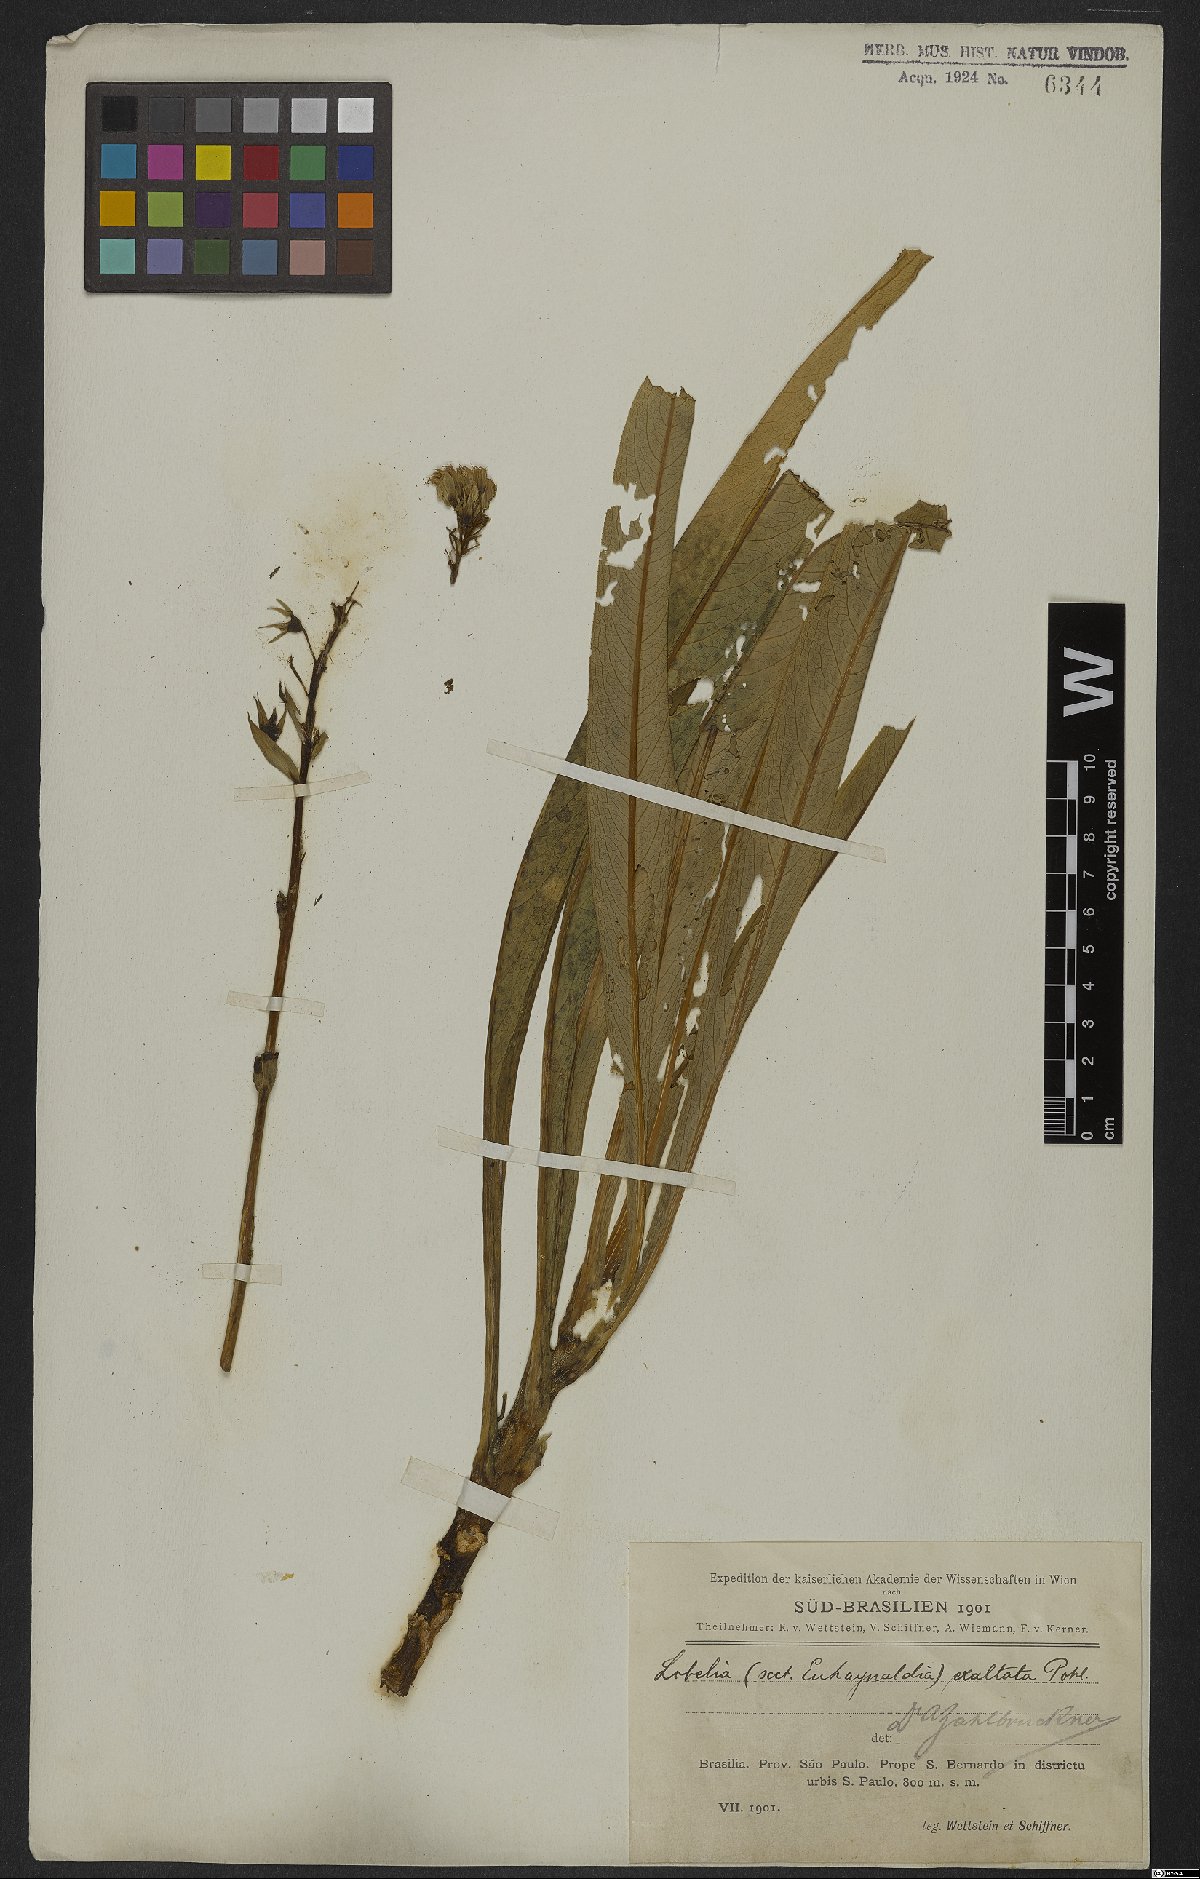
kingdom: Plantae
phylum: Tracheophyta
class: Magnoliopsida
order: Asterales
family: Campanulaceae
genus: Lobelia
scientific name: Lobelia exaltata
